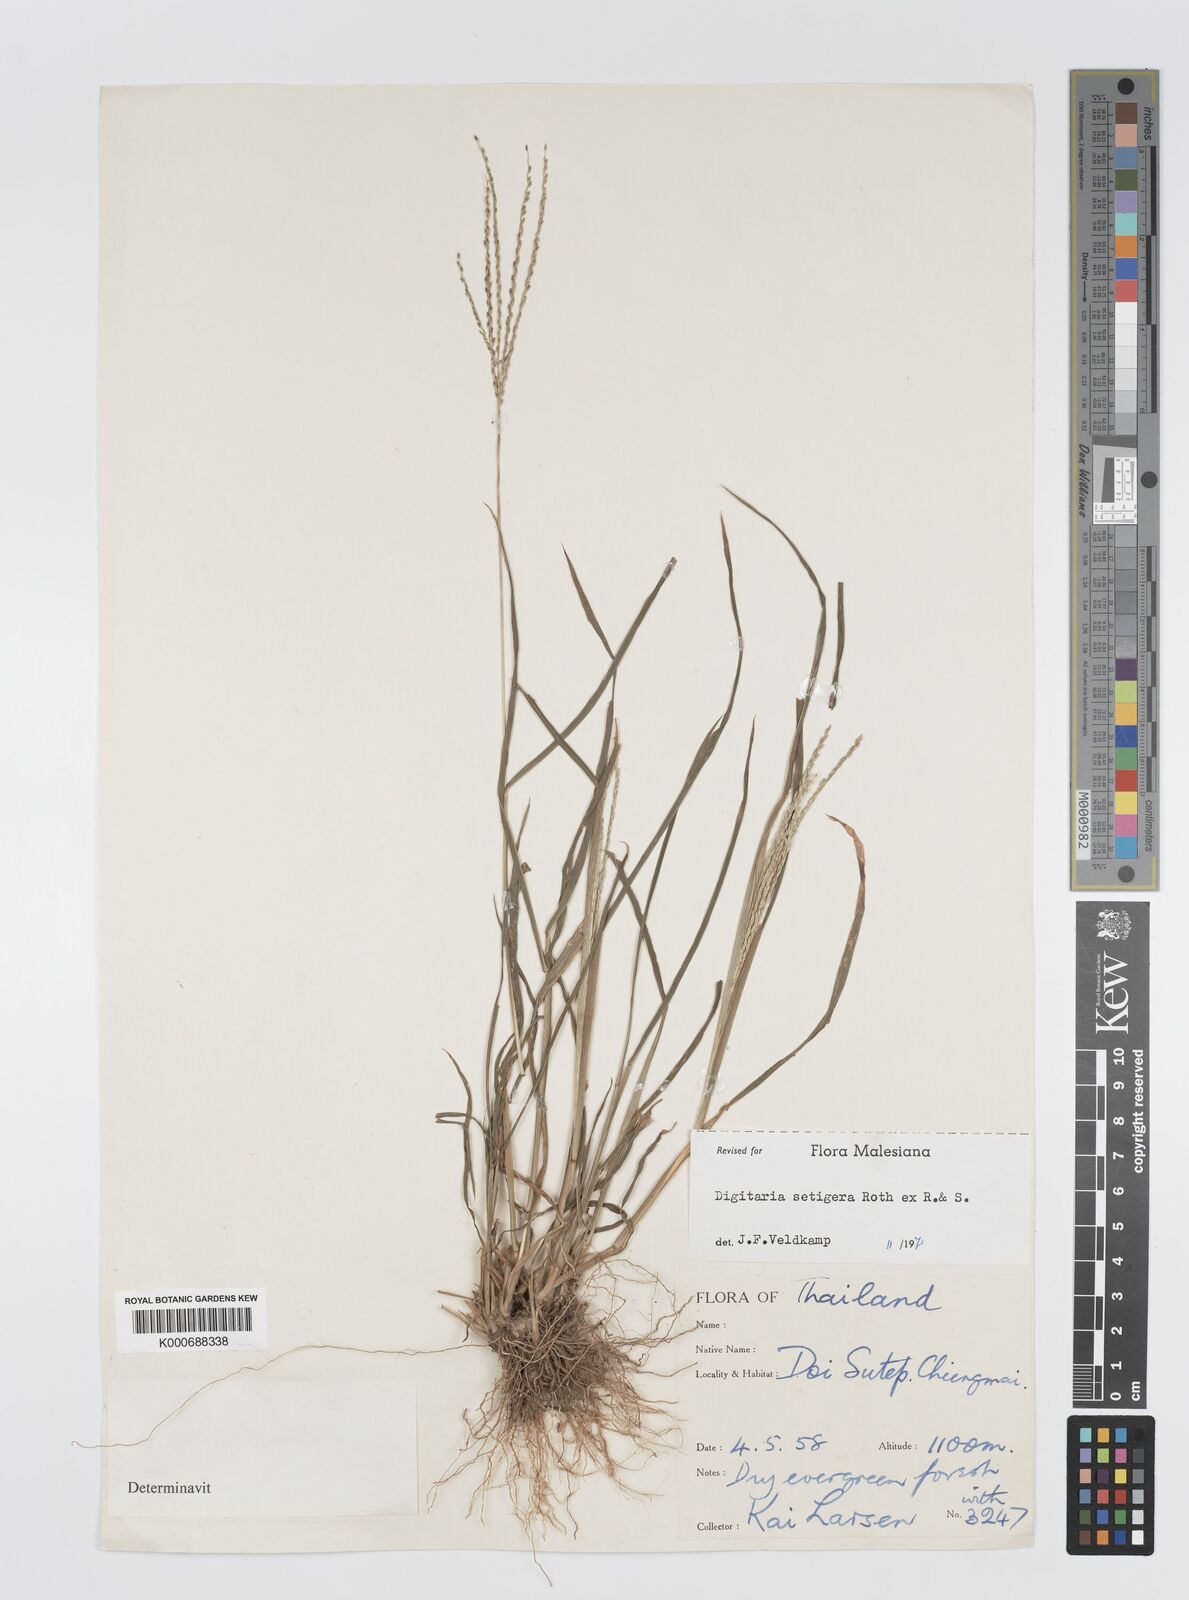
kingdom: Plantae
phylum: Tracheophyta
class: Liliopsida
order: Poales
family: Poaceae
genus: Digitaria
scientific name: Digitaria
